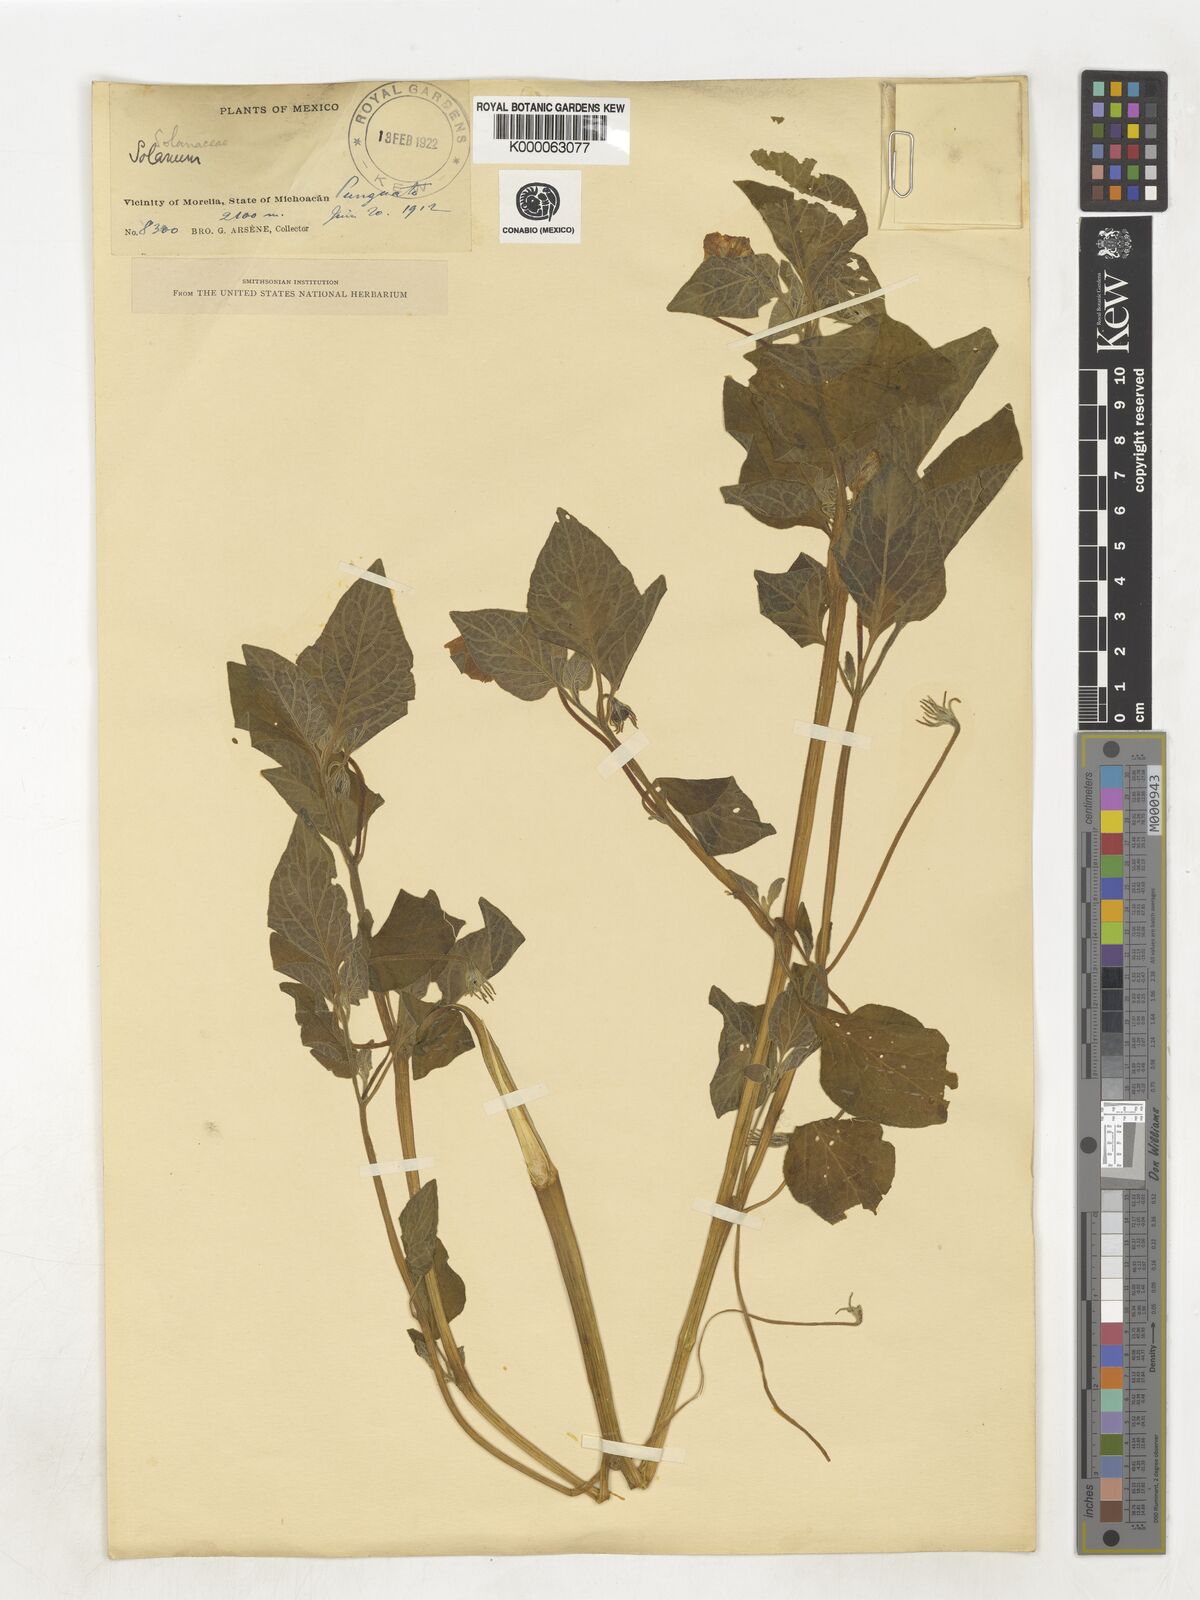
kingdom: Plantae
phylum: Tracheophyta
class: Magnoliopsida
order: Solanales
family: Solanaceae
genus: Lycianthes
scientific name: Lycianthes
